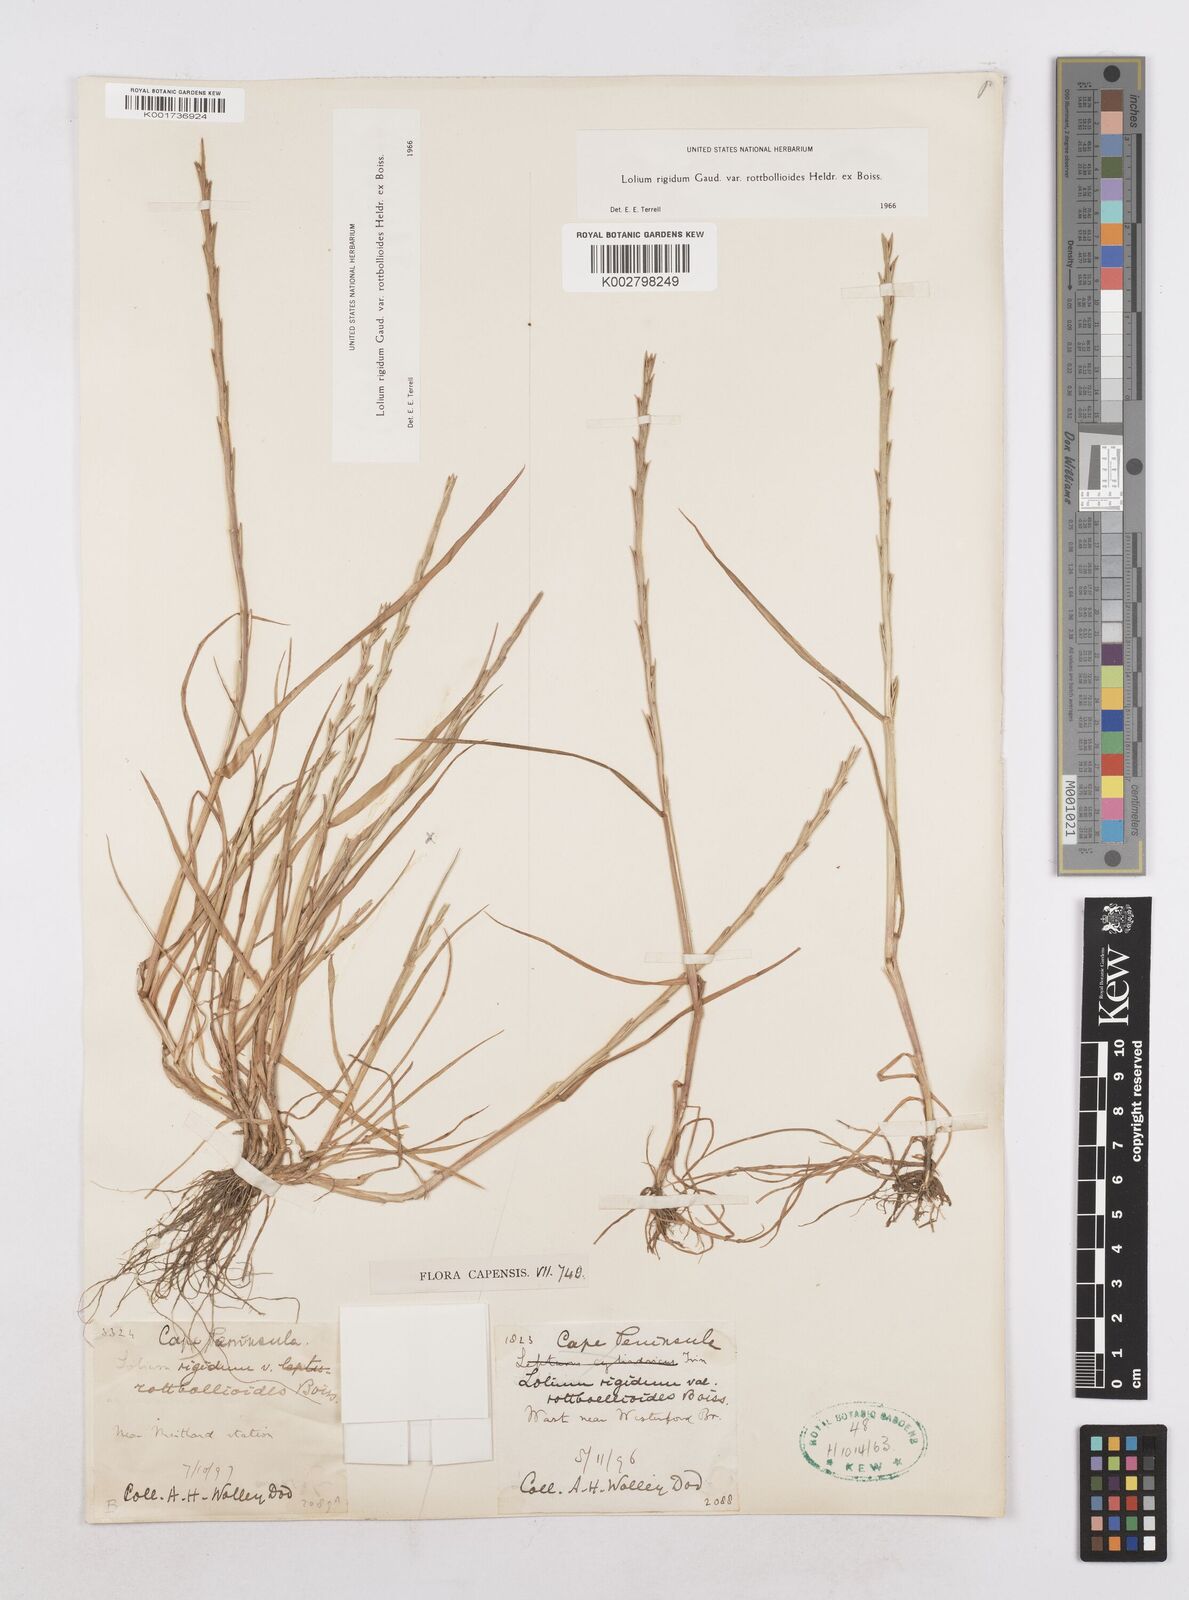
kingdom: Plantae
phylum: Tracheophyta
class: Liliopsida
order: Poales
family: Poaceae
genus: Lolium
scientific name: Lolium rigidum
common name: Wimmera ryegrass
